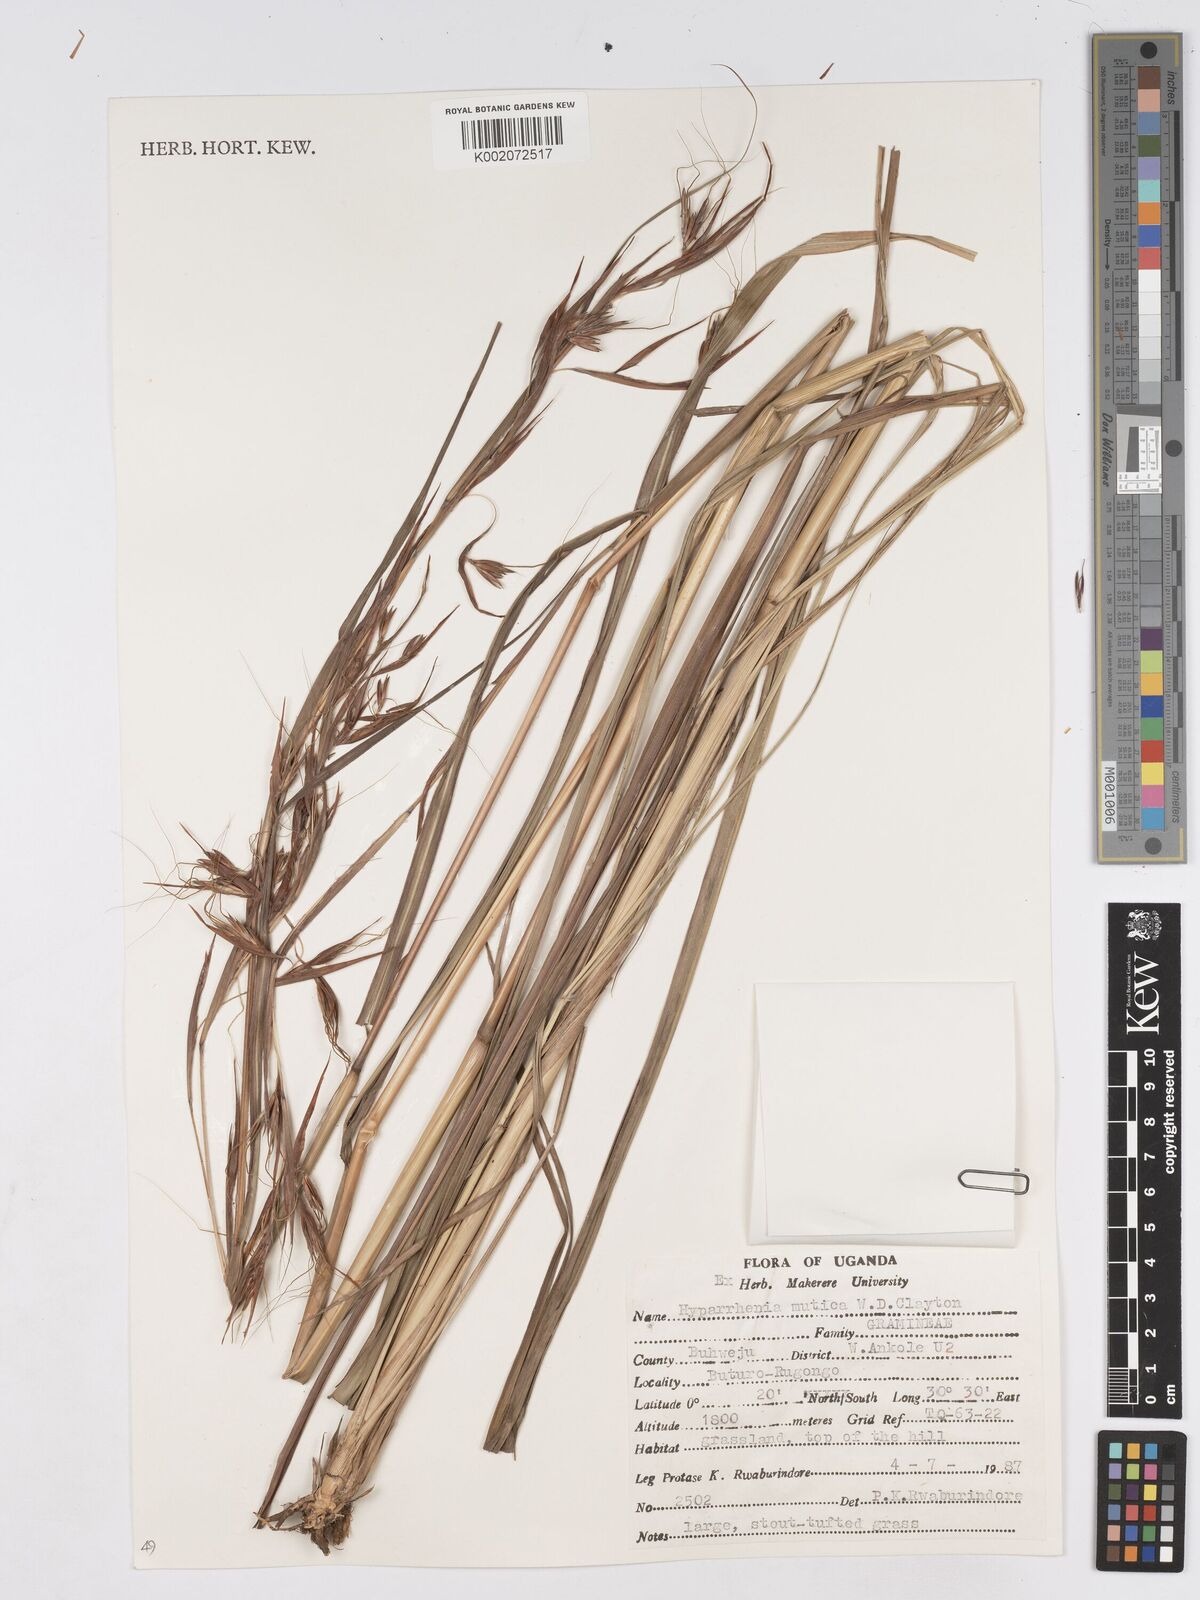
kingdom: Plantae
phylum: Tracheophyta
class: Liliopsida
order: Poales
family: Poaceae
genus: Hyparrhenia
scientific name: Hyparrhenia diplandra
